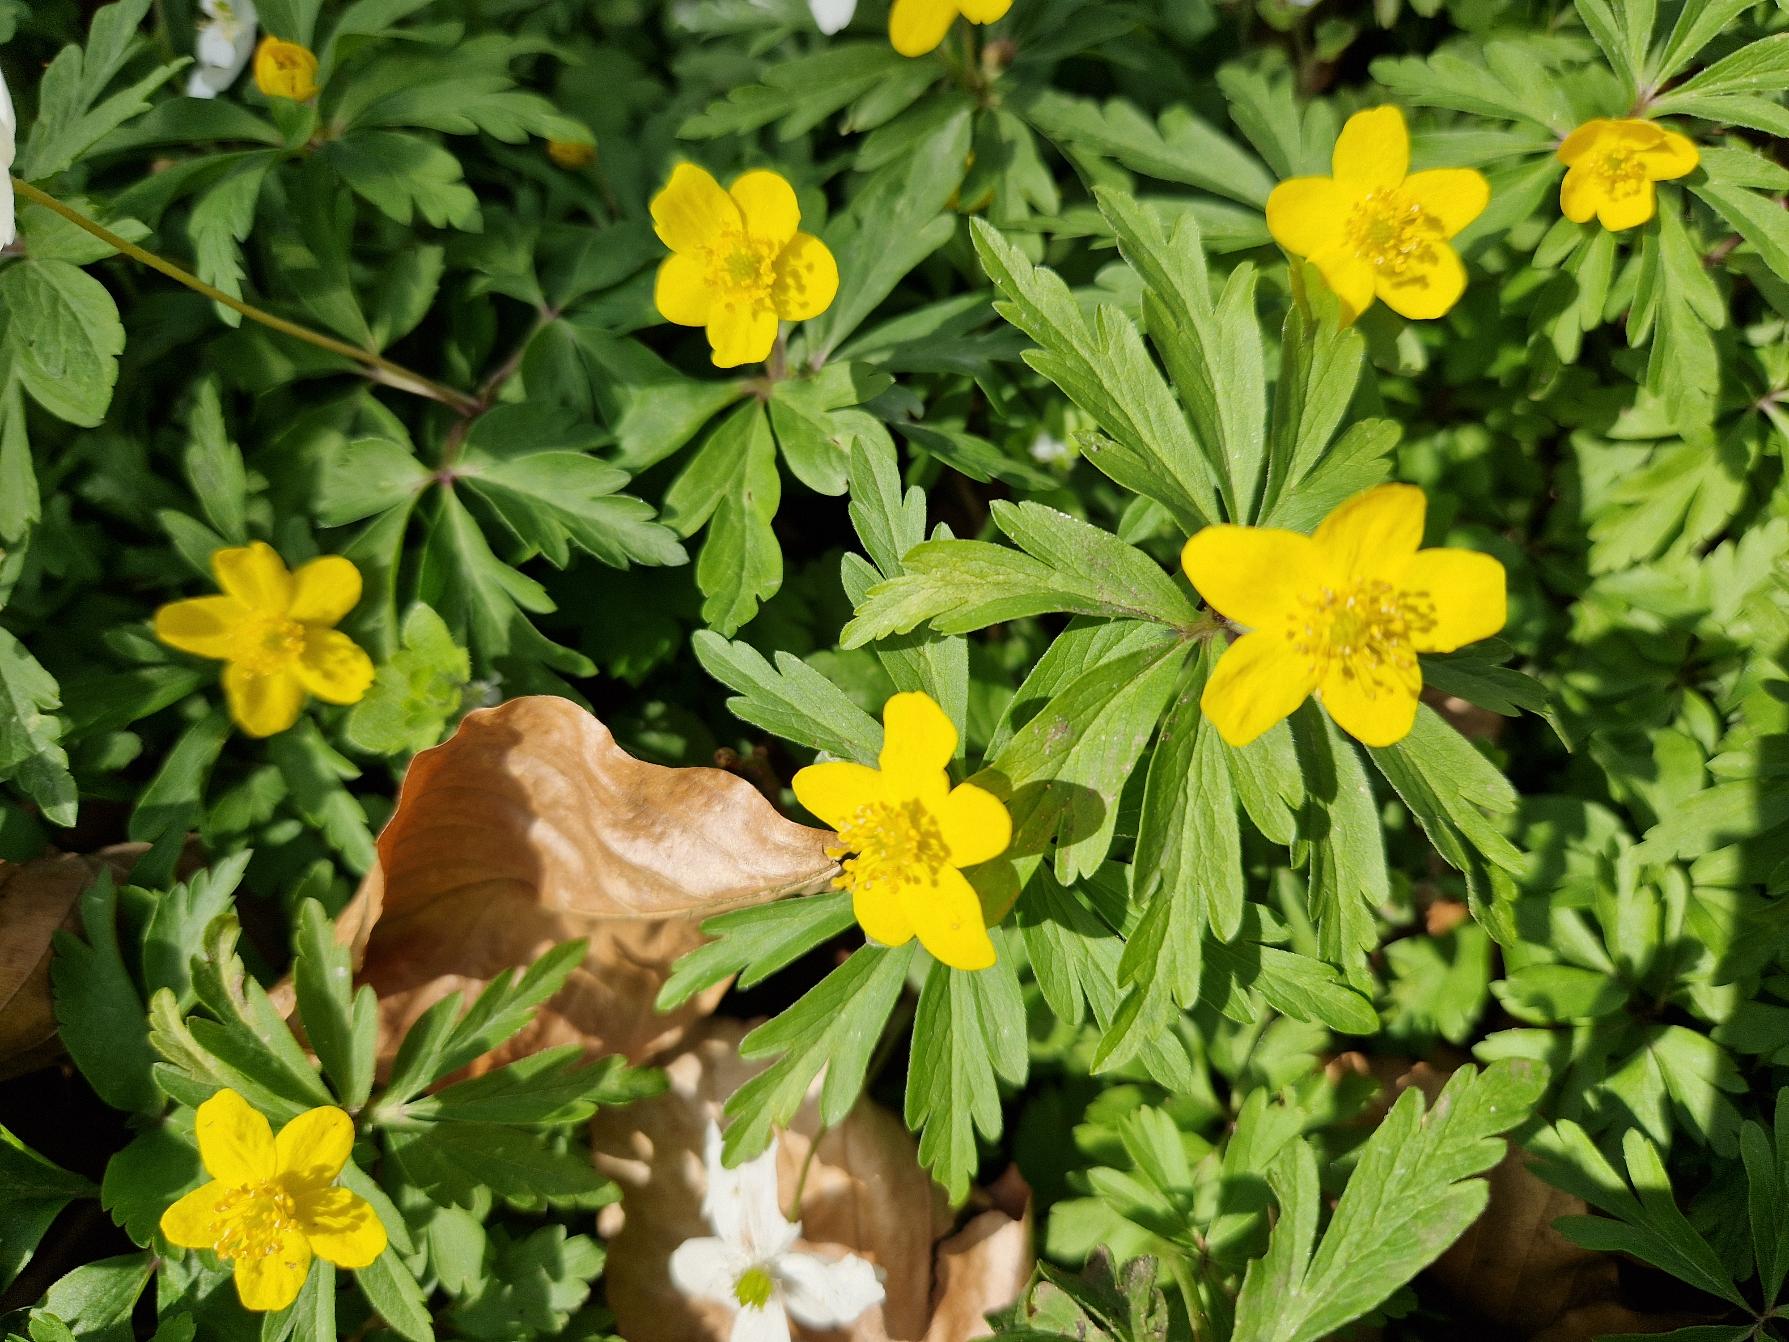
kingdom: Plantae
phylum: Tracheophyta
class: Magnoliopsida
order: Ranunculales
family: Ranunculaceae
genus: Anemone
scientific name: Anemone ranunculoides
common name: Gul anemone
